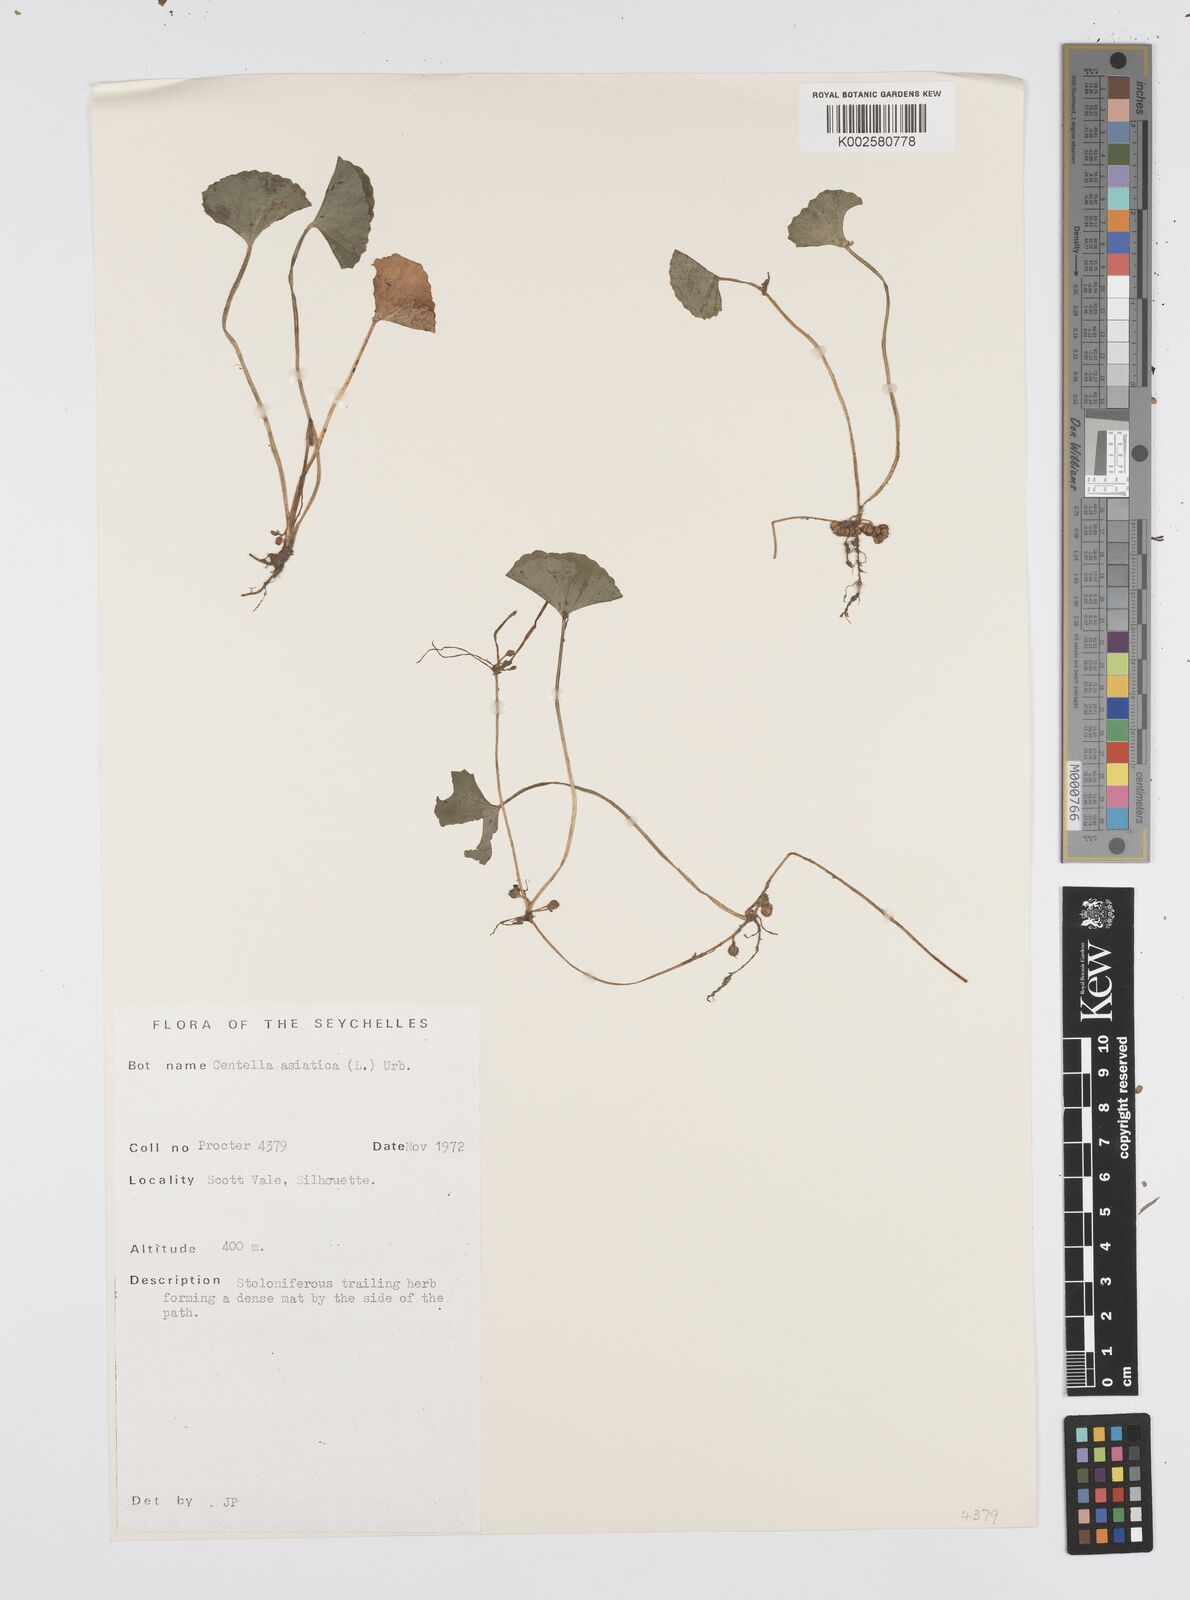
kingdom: Plantae
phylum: Tracheophyta
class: Magnoliopsida
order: Apiales
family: Apiaceae
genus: Centella
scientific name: Centella asiatica
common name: Spadeleaf
